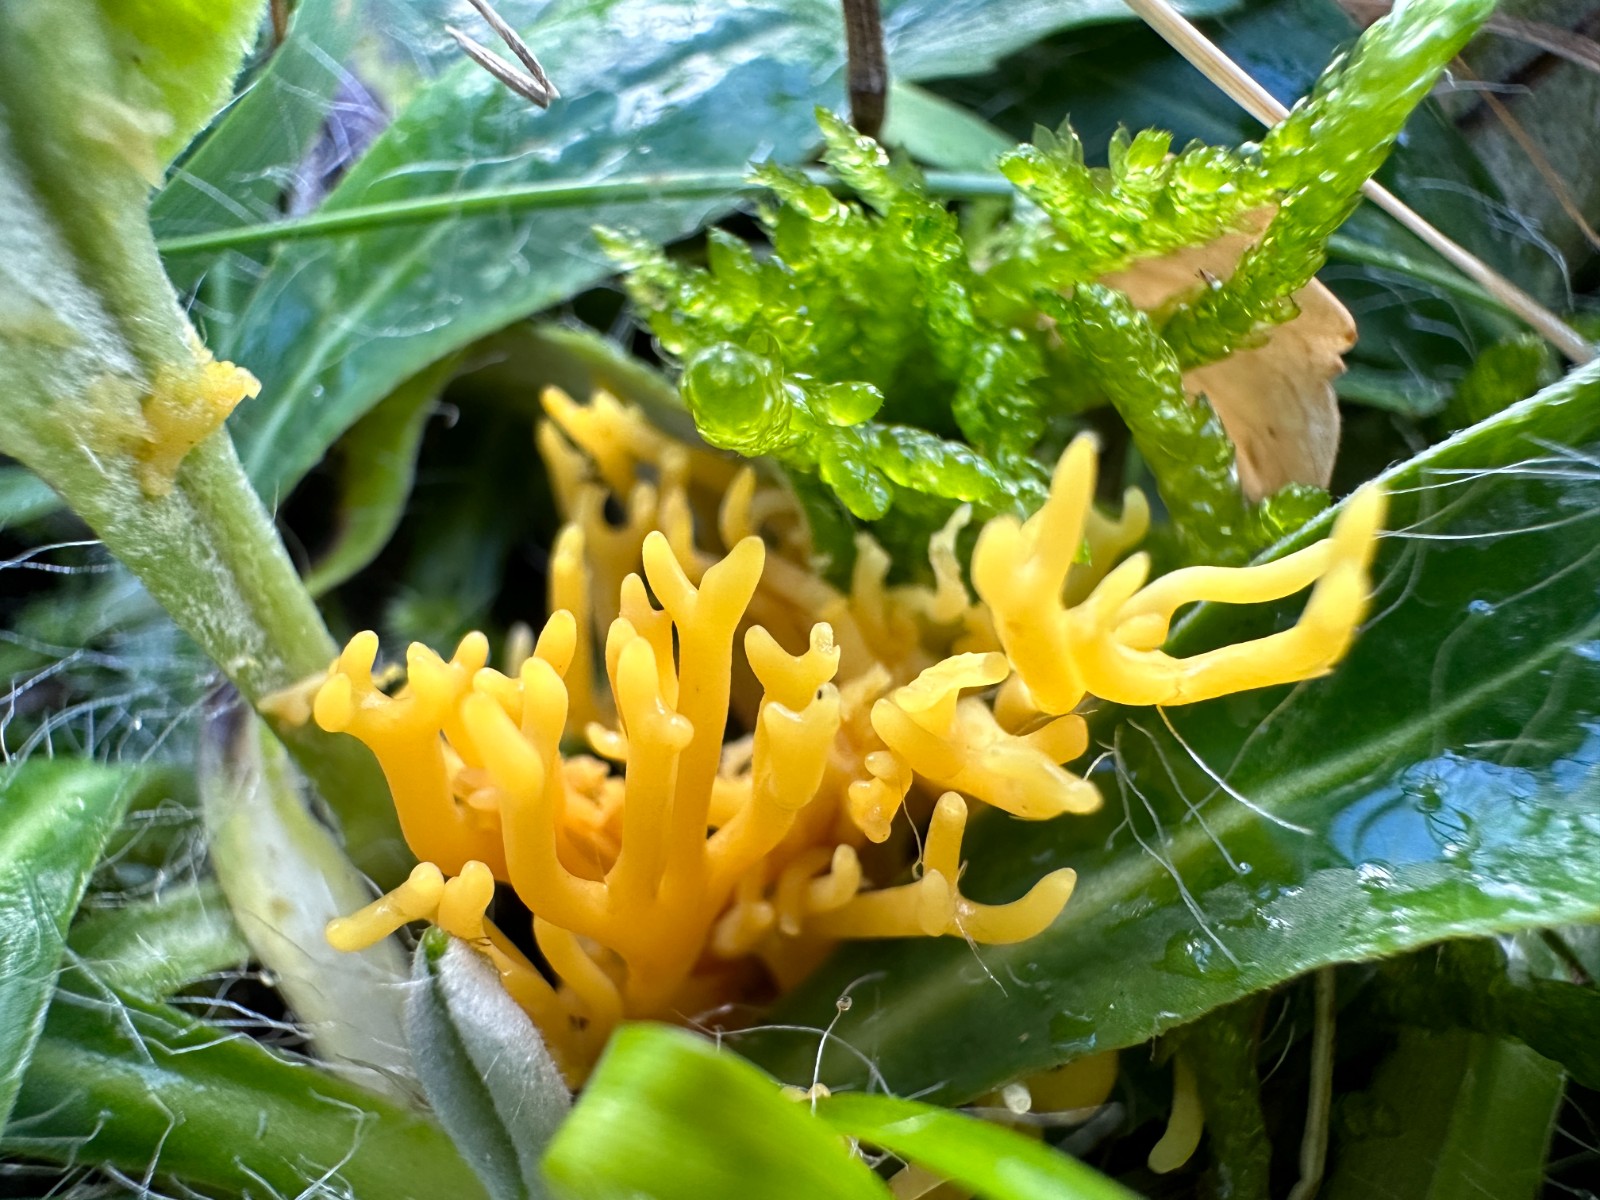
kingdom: Fungi
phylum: Basidiomycota
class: Agaricomycetes
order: Agaricales
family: Clavariaceae
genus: Clavulinopsis
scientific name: Clavulinopsis corniculata
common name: eng-køllesvamp
